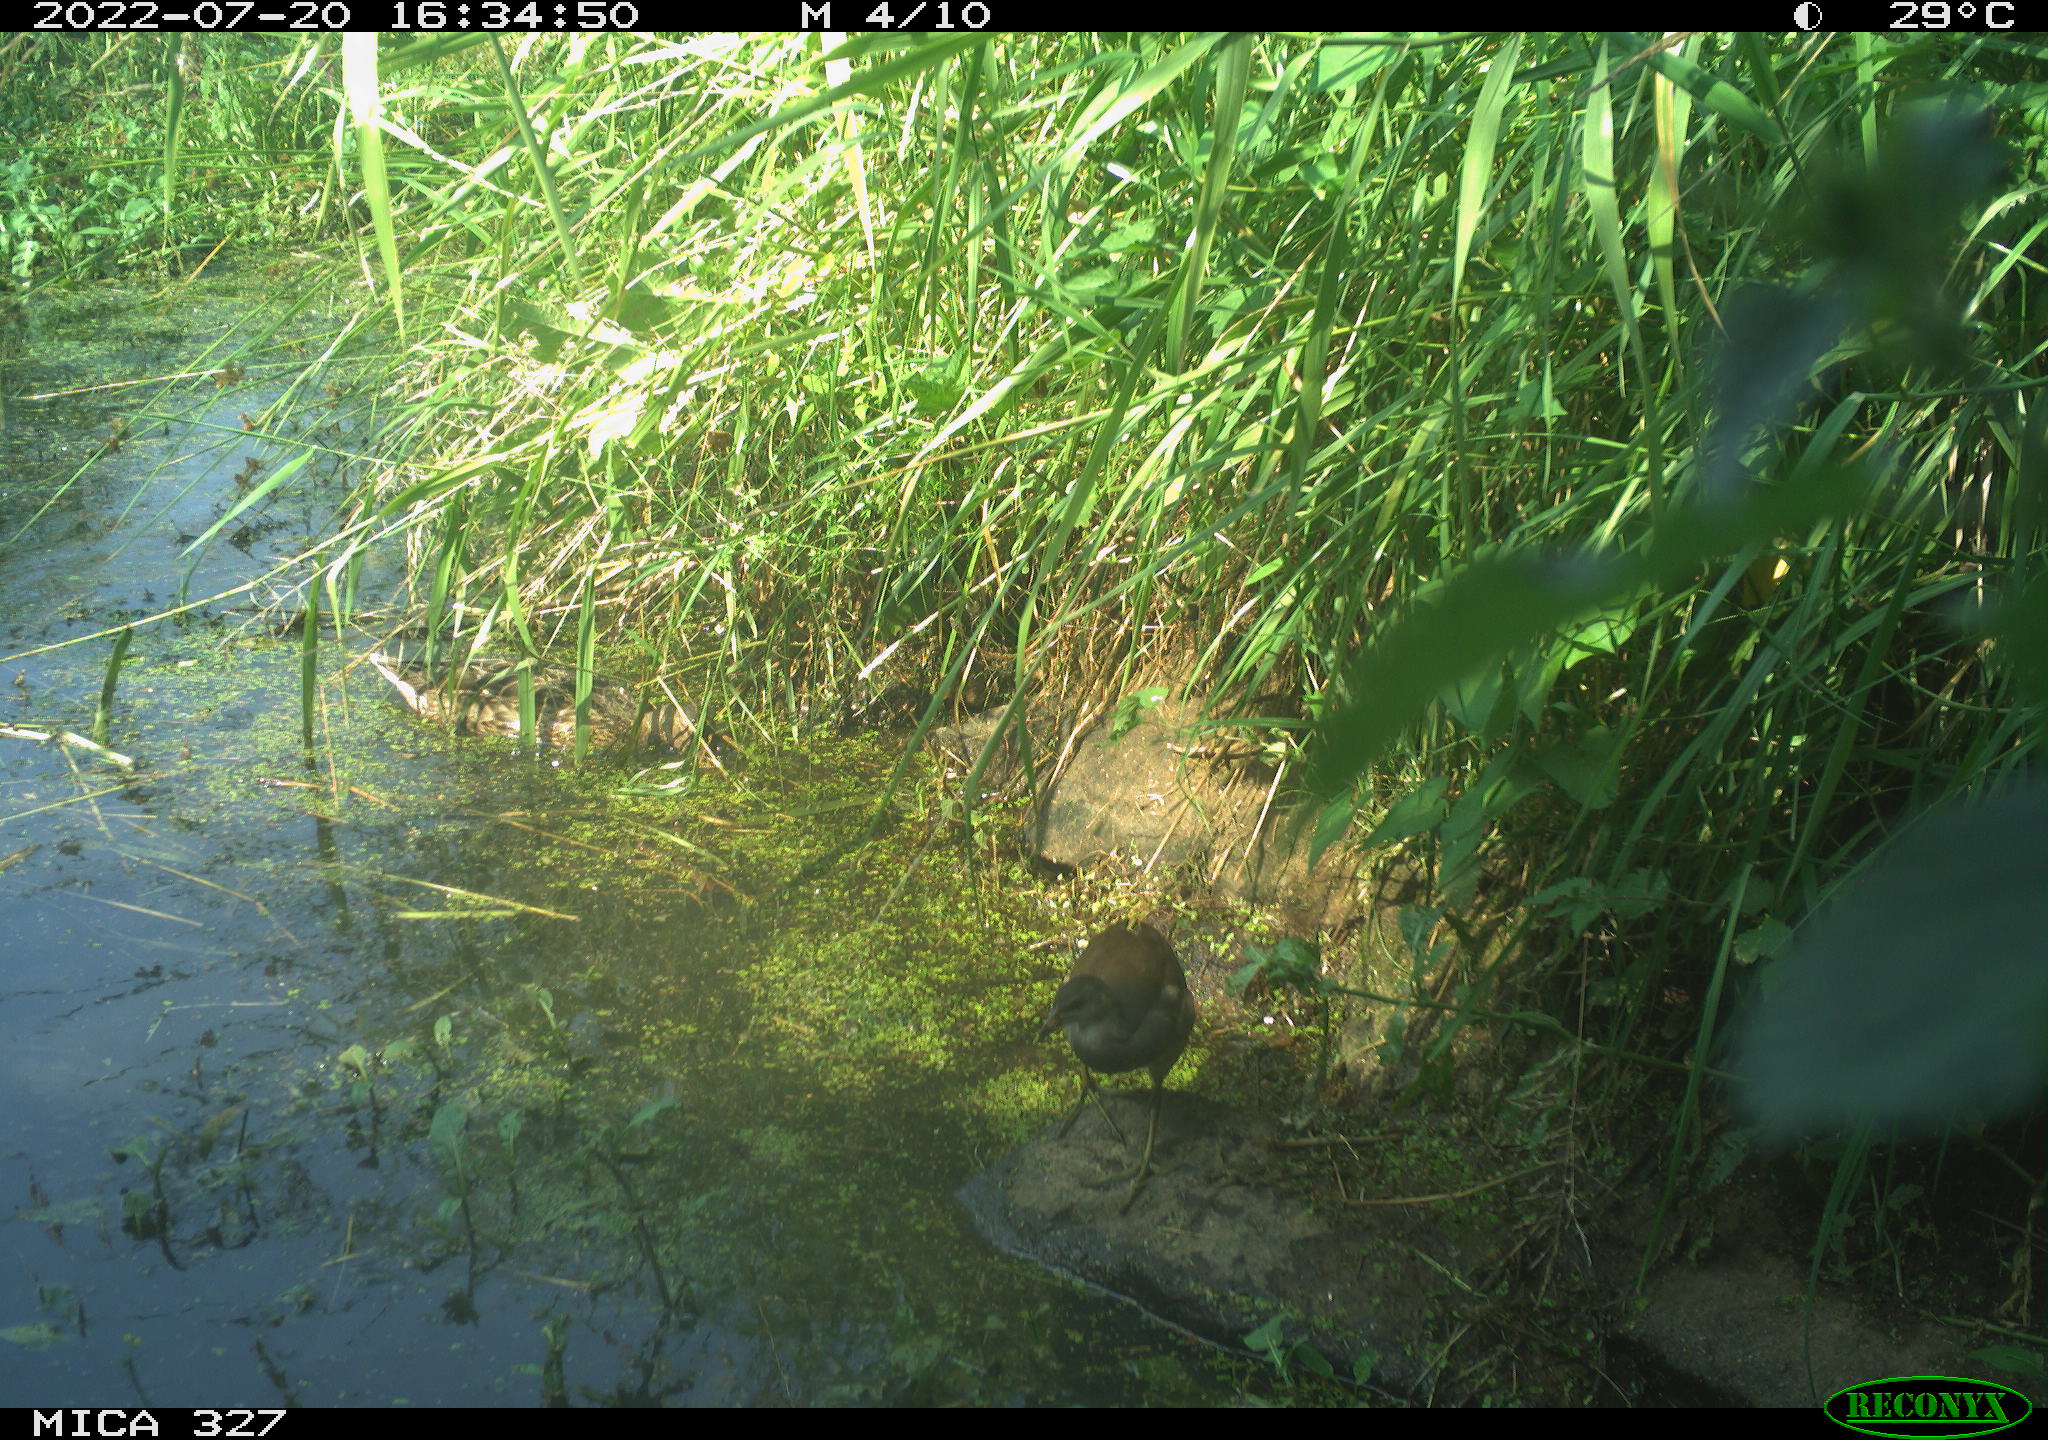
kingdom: Animalia
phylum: Chordata
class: Aves
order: Gruiformes
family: Rallidae
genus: Gallinula
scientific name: Gallinula chloropus
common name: Common moorhen
